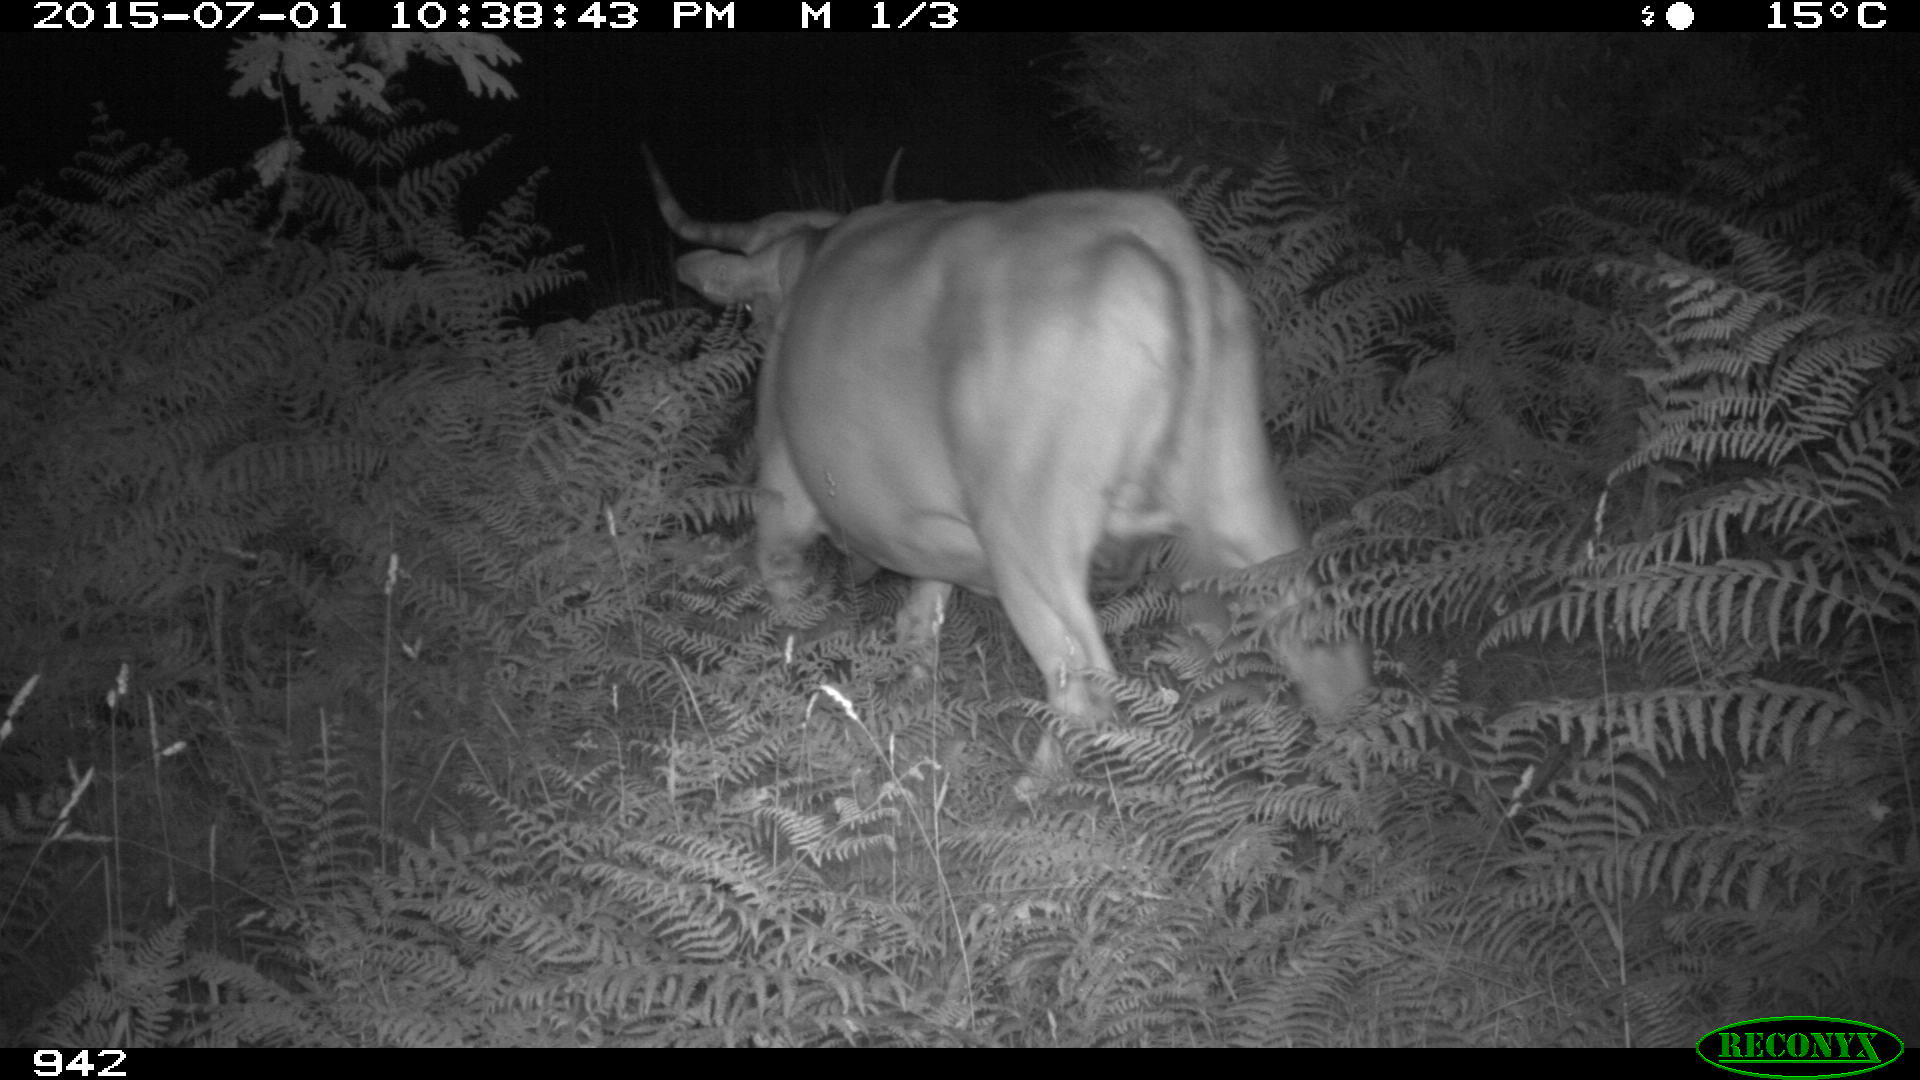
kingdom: Animalia
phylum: Chordata
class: Mammalia
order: Artiodactyla
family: Bovidae
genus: Bos
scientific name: Bos taurus
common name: Domesticated cattle
